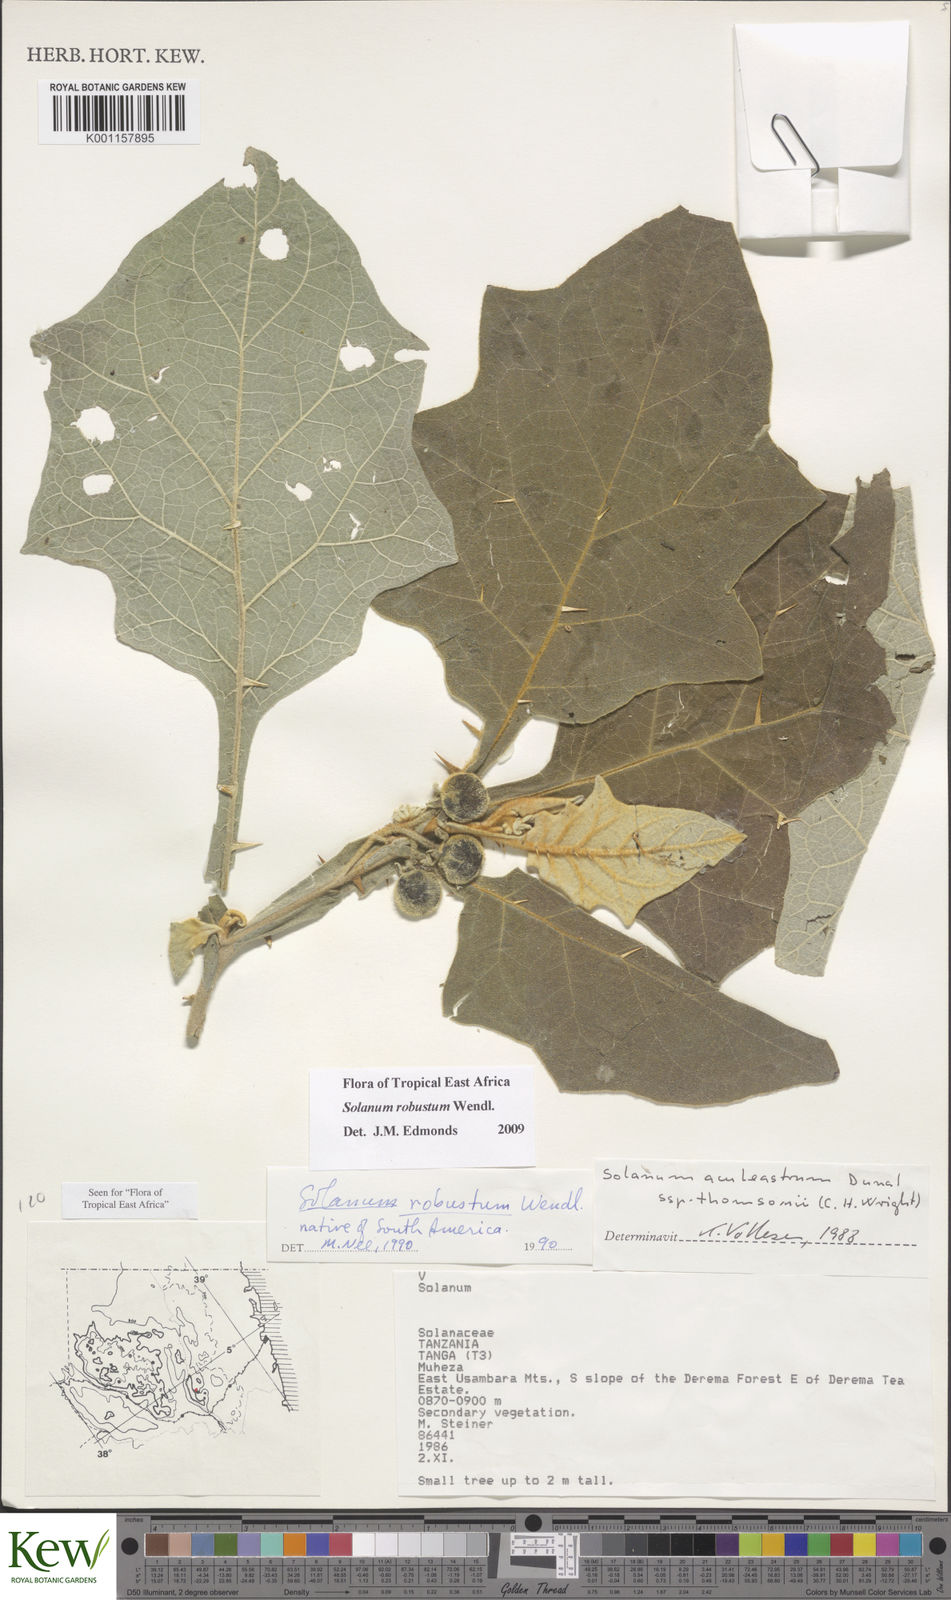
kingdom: Plantae
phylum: Tracheophyta
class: Magnoliopsida
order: Solanales
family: Solanaceae
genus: Solanum
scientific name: Solanum robustum
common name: Shrubby nightshade
